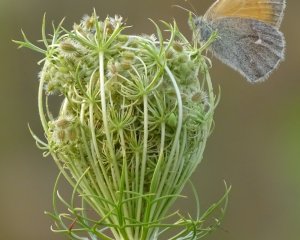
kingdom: Animalia
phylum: Arthropoda
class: Insecta
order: Lepidoptera
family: Nymphalidae
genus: Coenonympha
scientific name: Coenonympha tullia
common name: Large Heath
